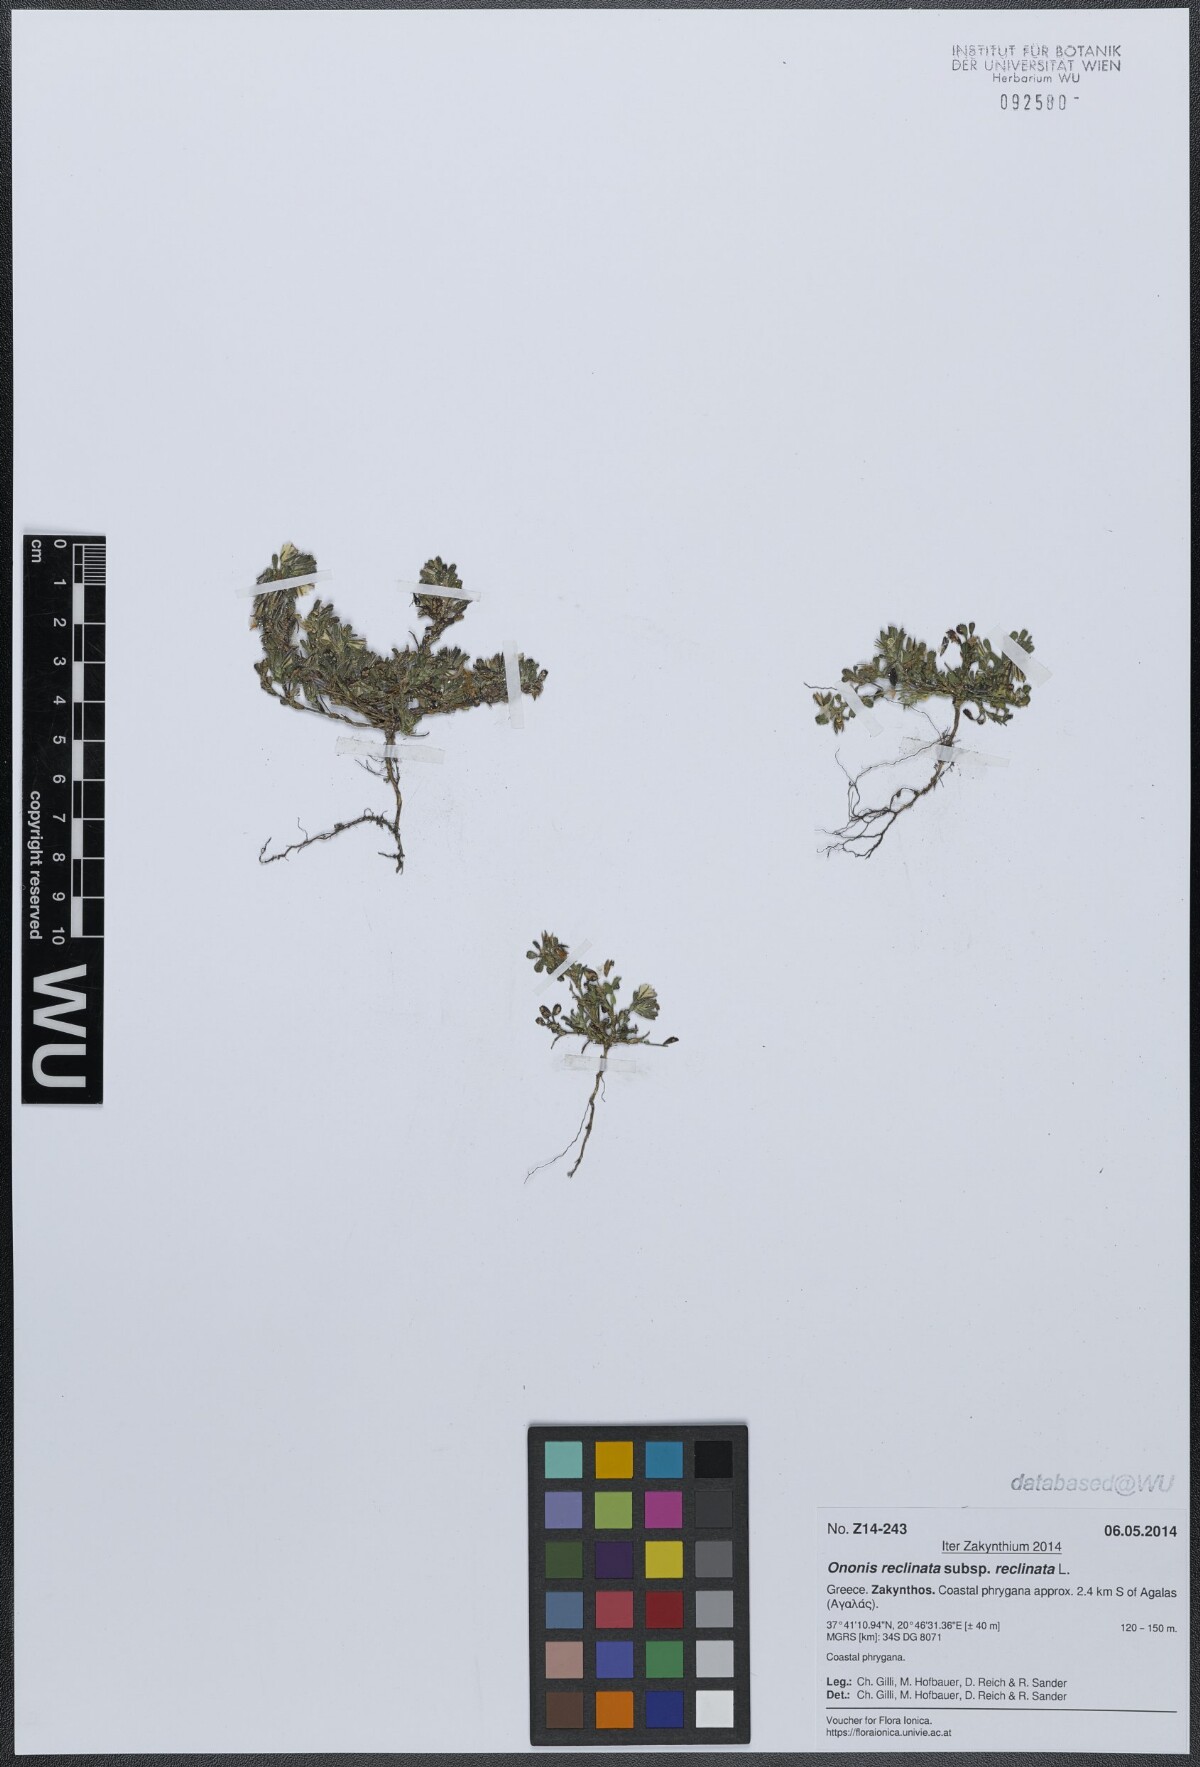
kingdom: Plantae
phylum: Tracheophyta
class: Magnoliopsida
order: Fabales
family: Fabaceae
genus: Ononis
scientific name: Ononis reclinata
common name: Small restharrow
